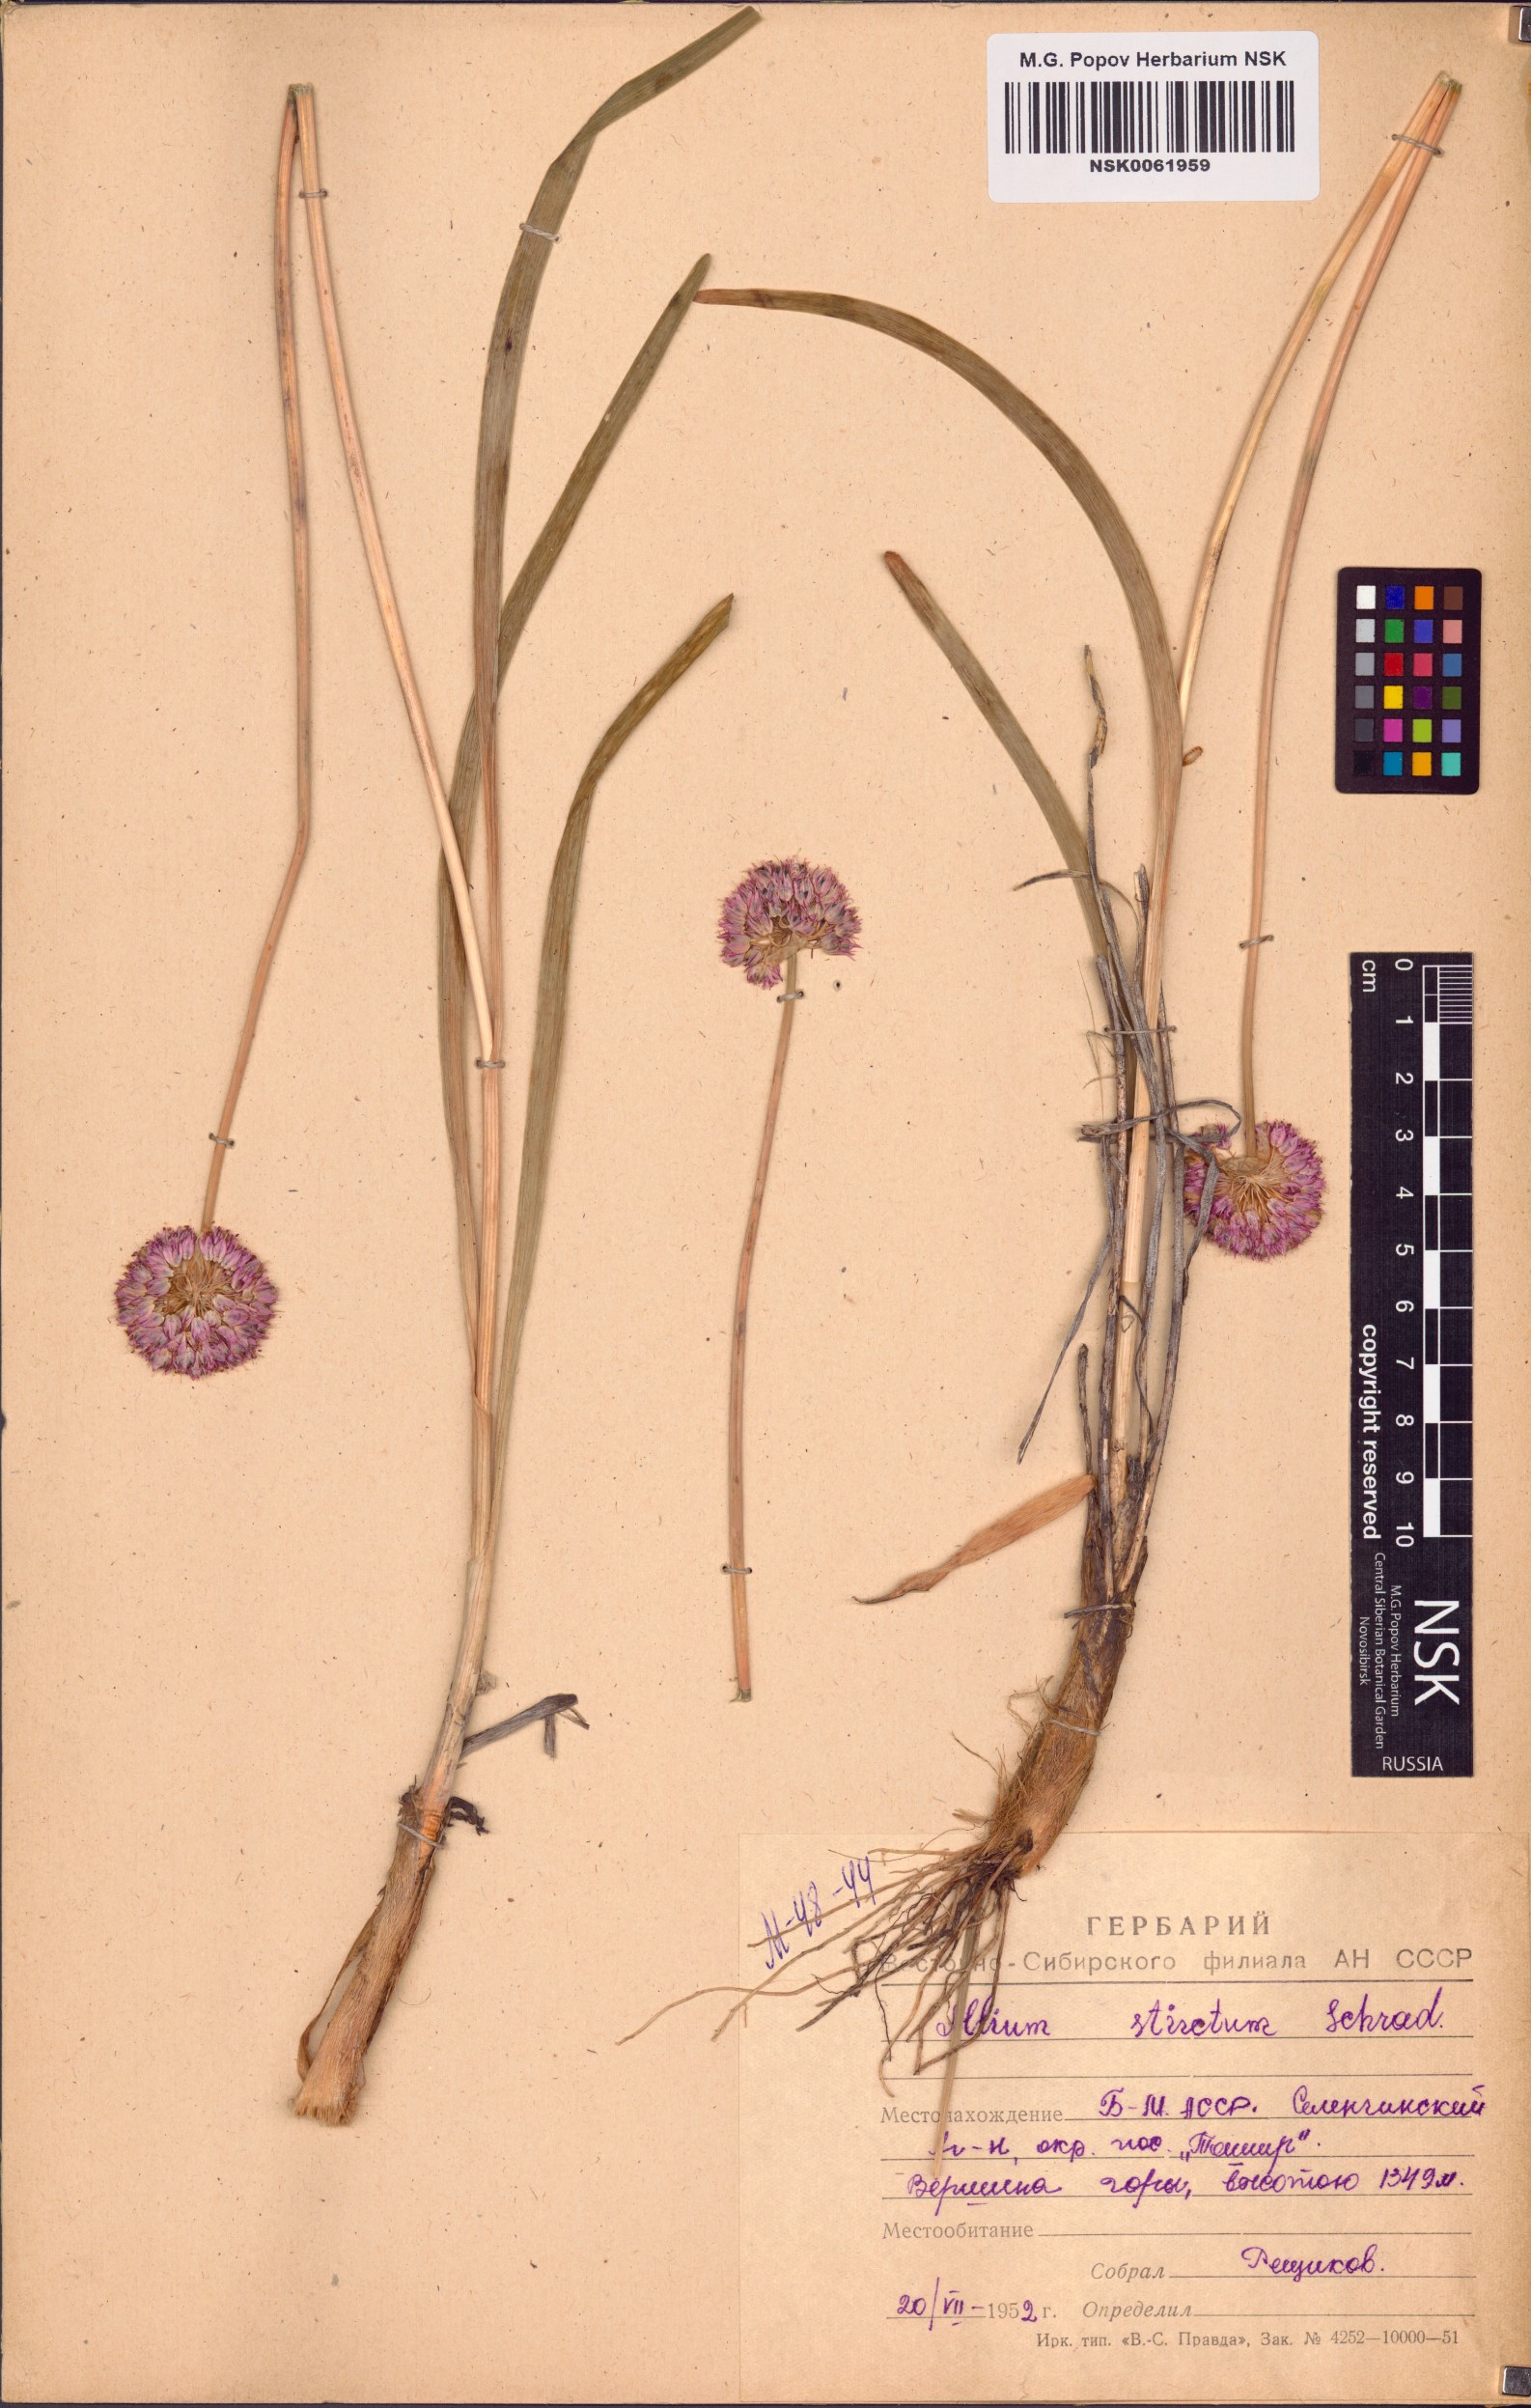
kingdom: Plantae
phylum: Tracheophyta
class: Liliopsida
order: Asparagales
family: Amaryllidaceae
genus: Allium
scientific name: Allium strictum
